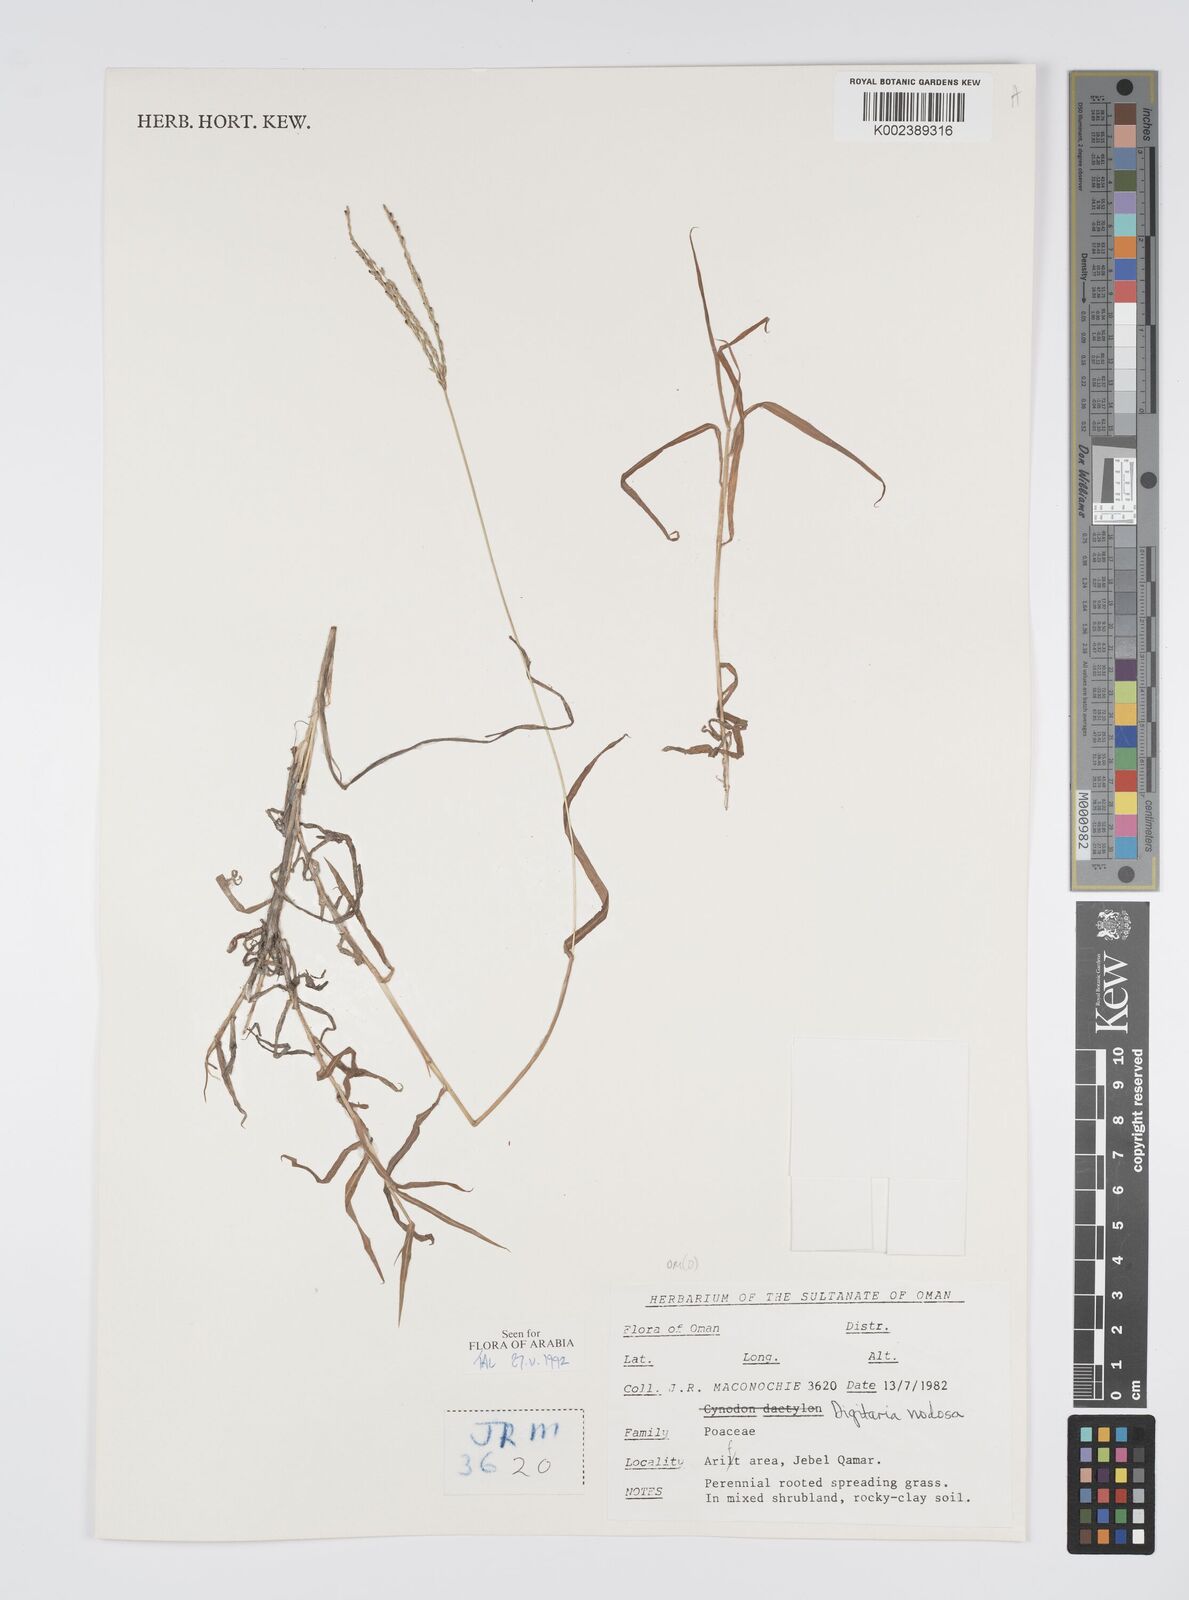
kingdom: Plantae
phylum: Tracheophyta
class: Liliopsida
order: Poales
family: Poaceae
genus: Digitaria
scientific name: Digitaria nodosa
